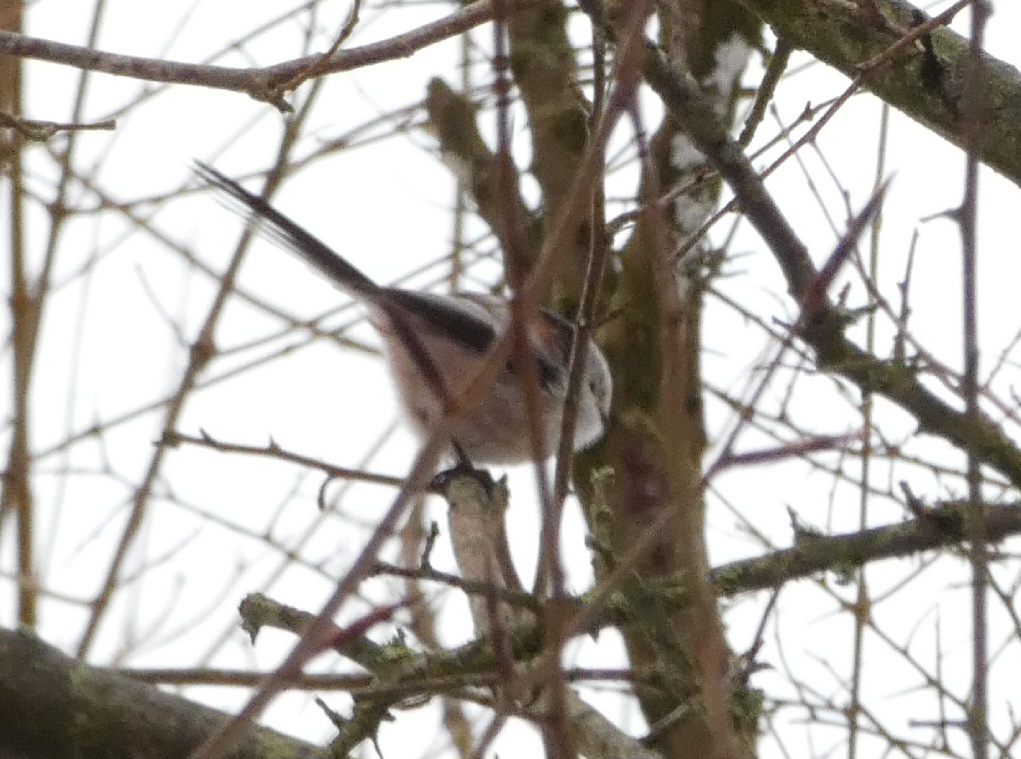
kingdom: Animalia
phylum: Chordata
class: Aves
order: Passeriformes
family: Aegithalidae
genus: Aegithalos
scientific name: Aegithalos caudatus
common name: Halemejse
